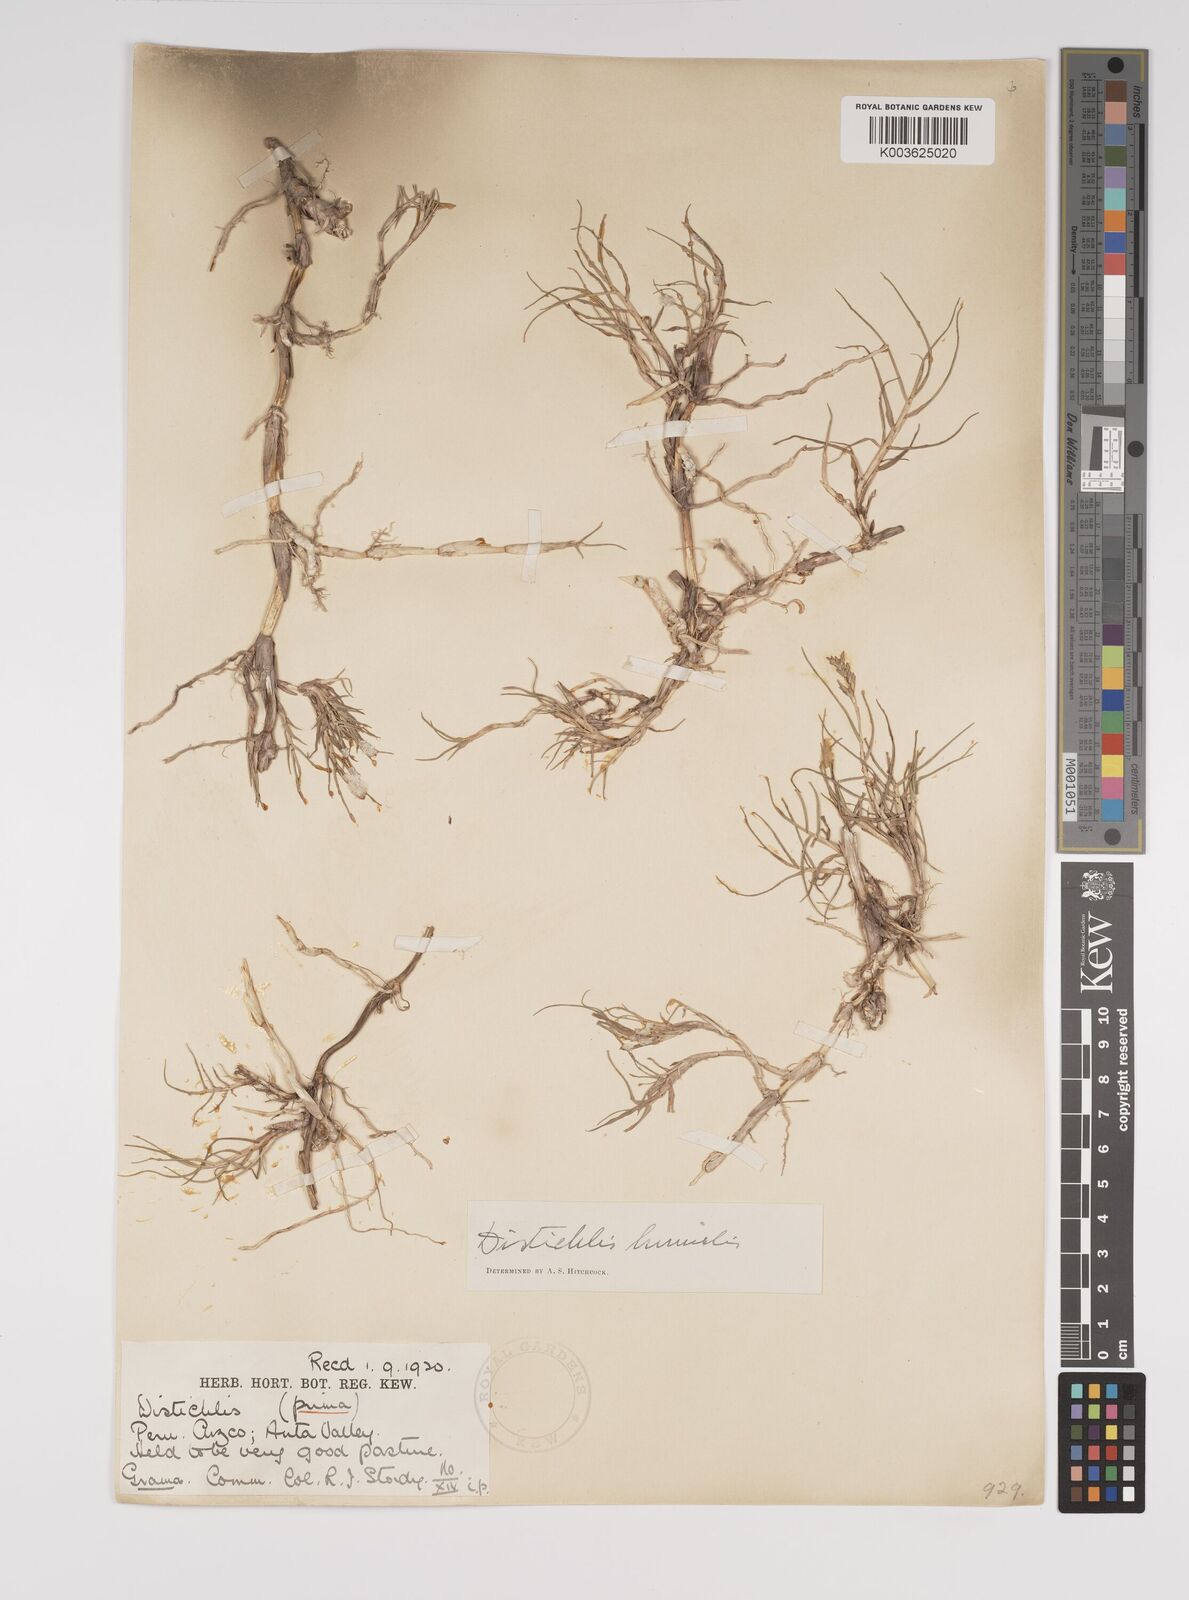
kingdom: Plantae
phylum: Tracheophyta
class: Liliopsida
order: Poales
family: Poaceae
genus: Distichlis
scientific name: Distichlis humilis
